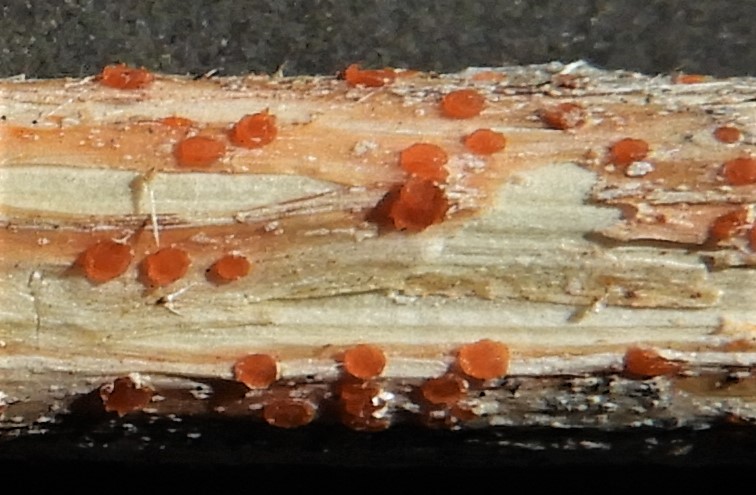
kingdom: Fungi
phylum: Ascomycota
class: Leotiomycetes
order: Helotiales
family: Calloriaceae
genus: Calloria
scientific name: Calloria urticae
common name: nælde-orangeskive
